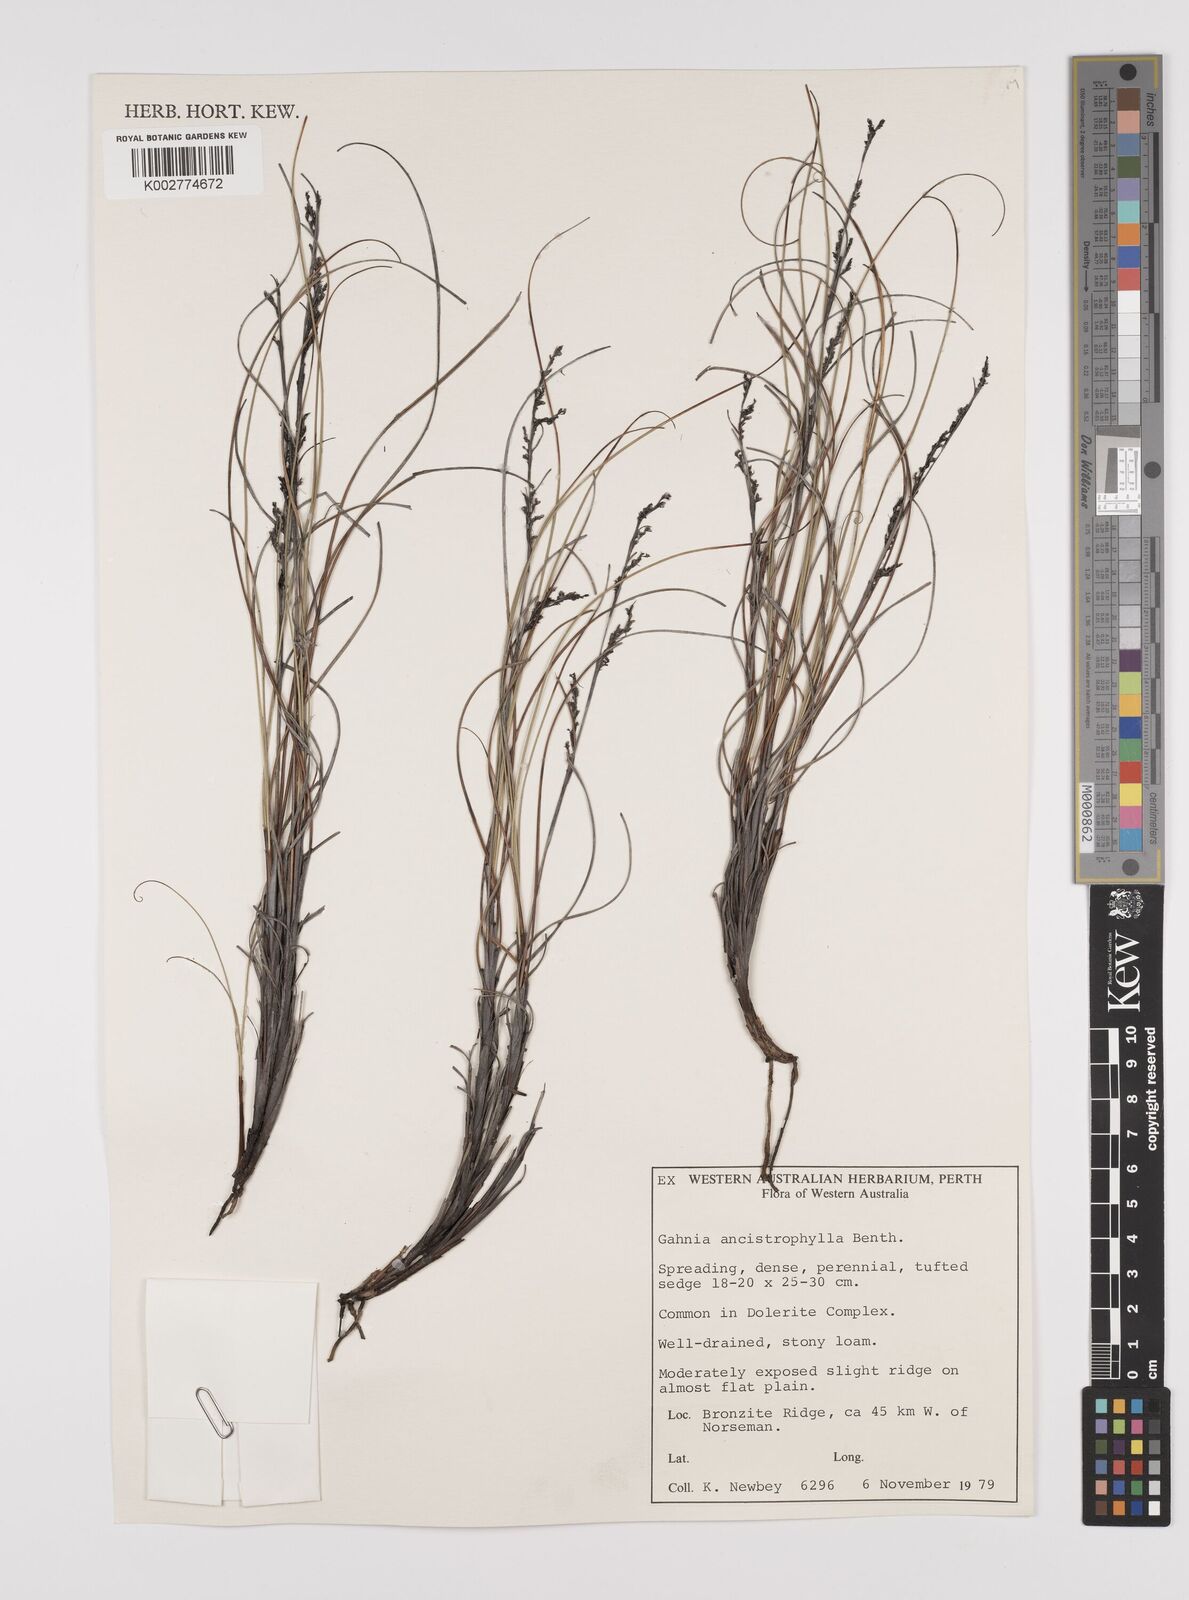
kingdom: Plantae
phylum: Tracheophyta
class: Liliopsida
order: Poales
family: Cyperaceae
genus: Gahnia
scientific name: Gahnia ancistrophylla
